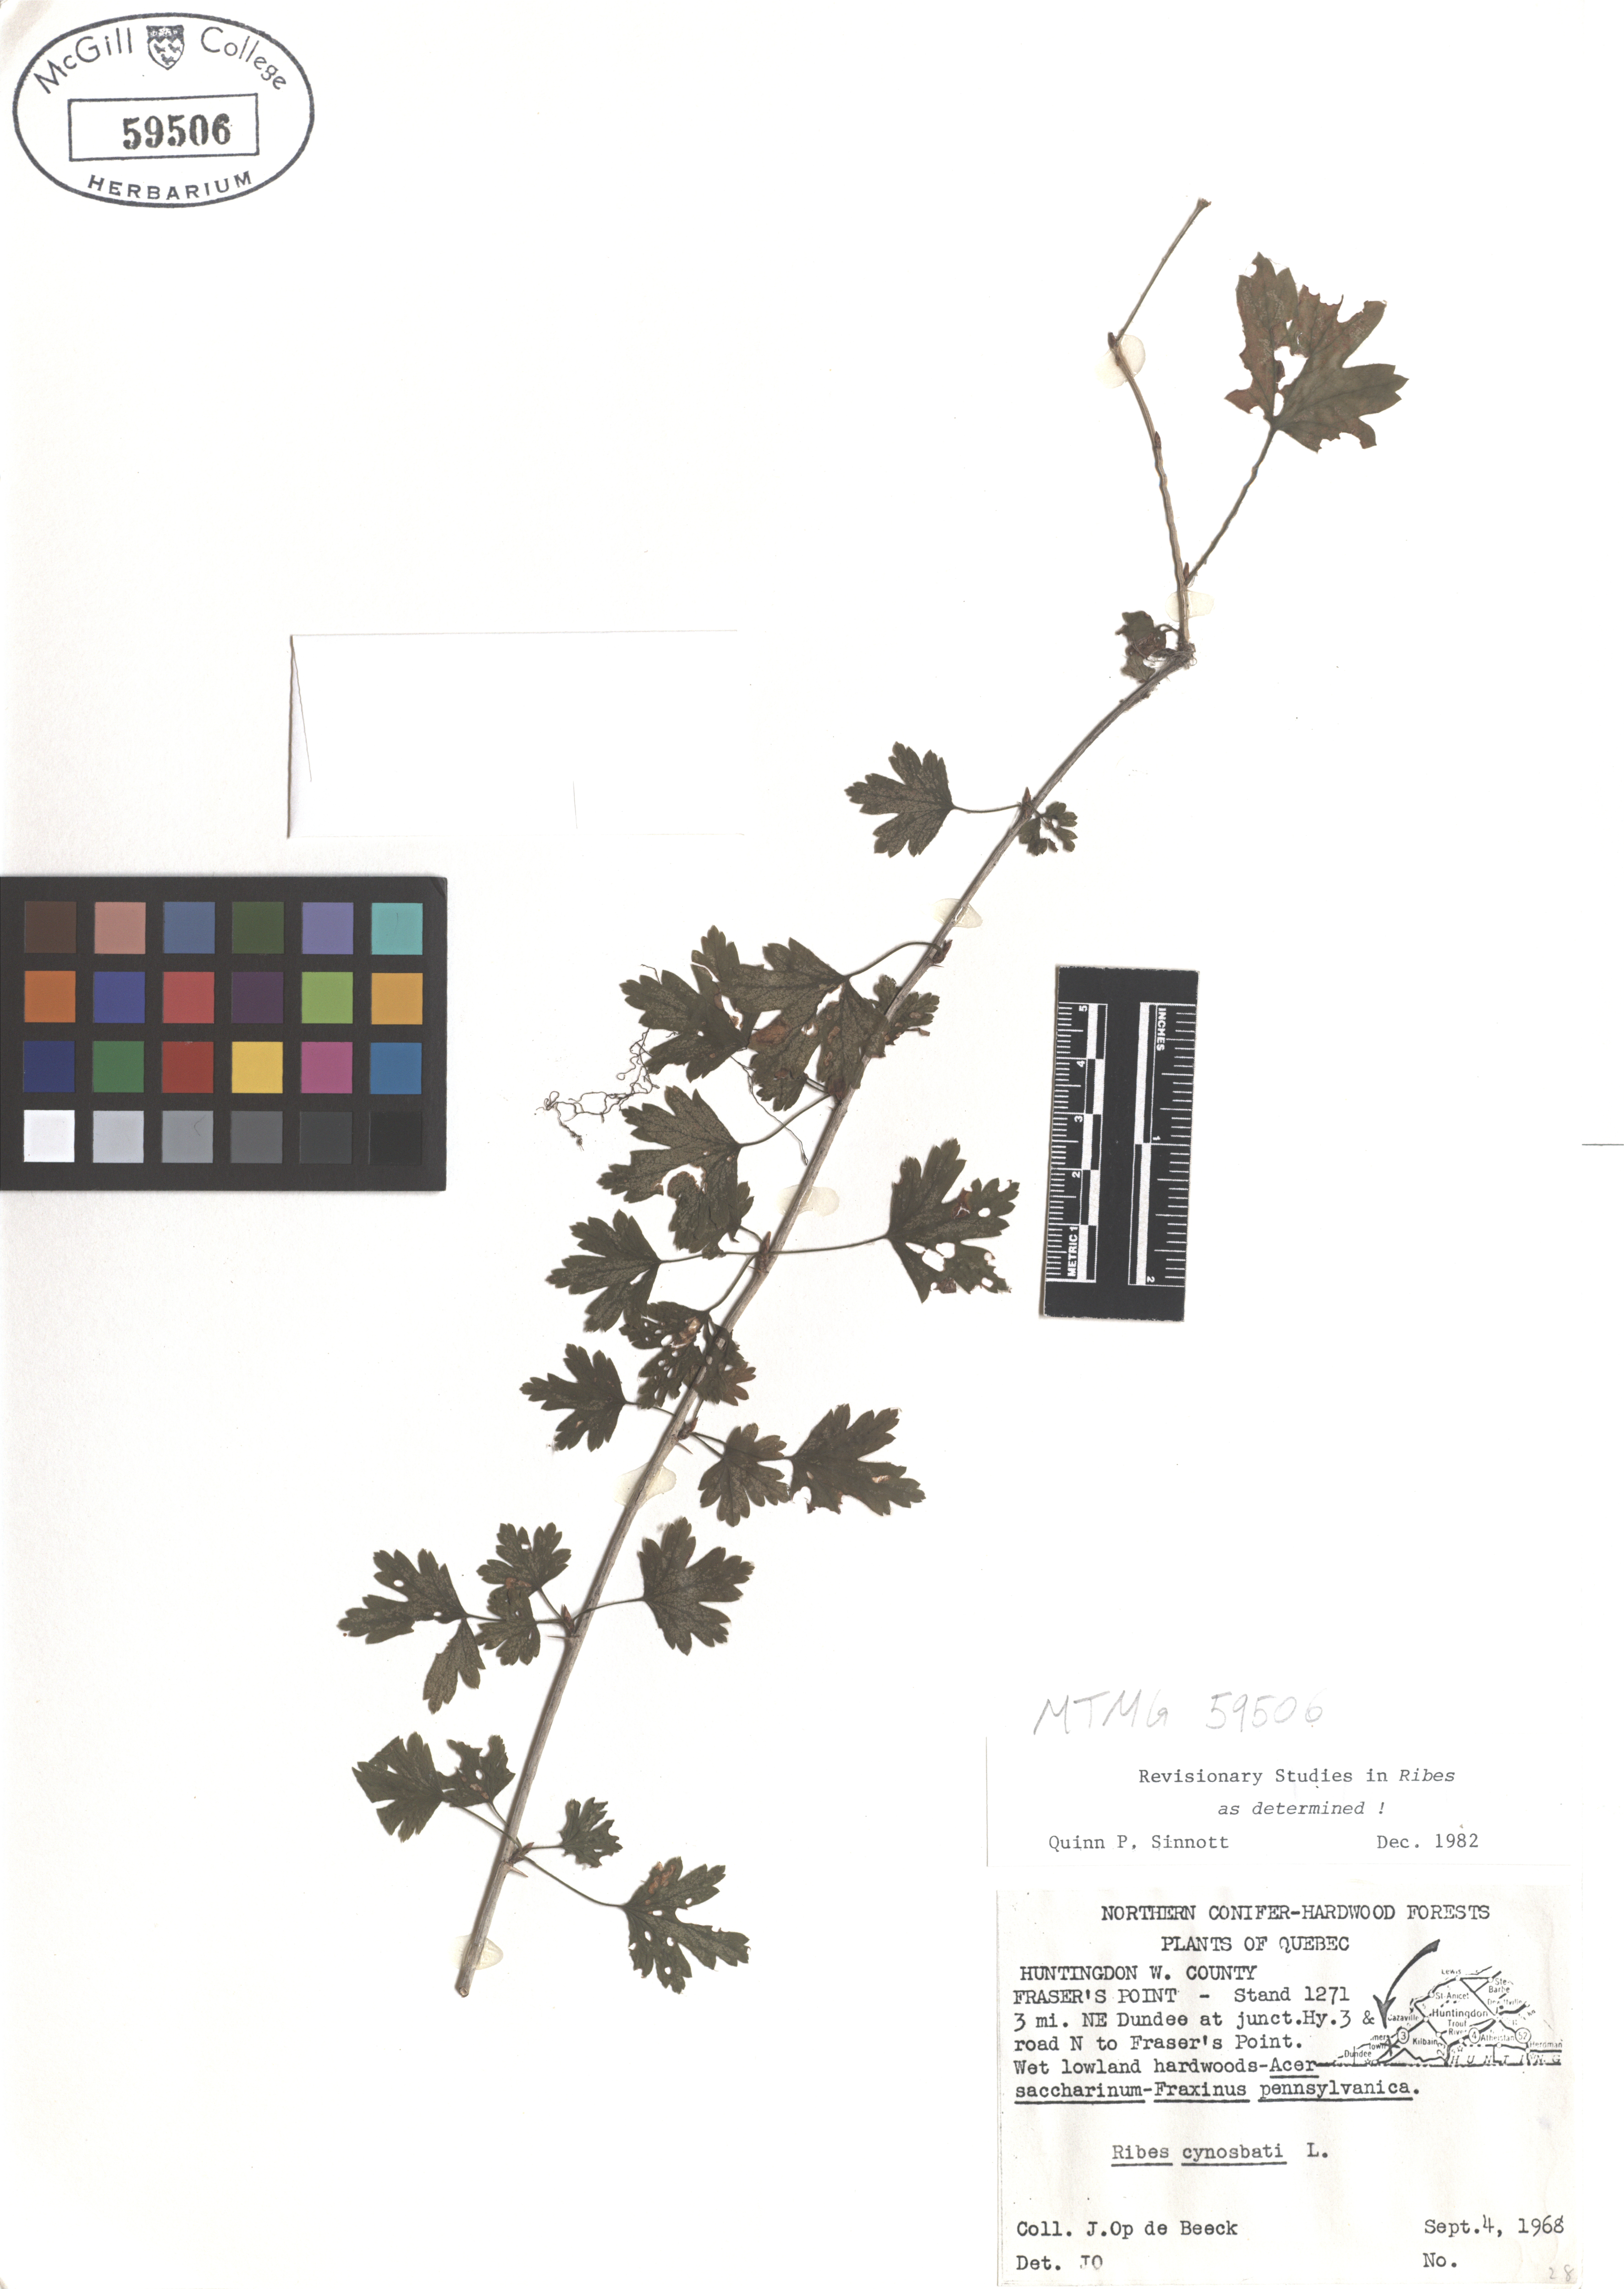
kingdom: Plantae
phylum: Tracheophyta
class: Magnoliopsida
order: Saxifragales
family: Grossulariaceae
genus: Ribes
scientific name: Ribes cynosbati
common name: American gooseberry
